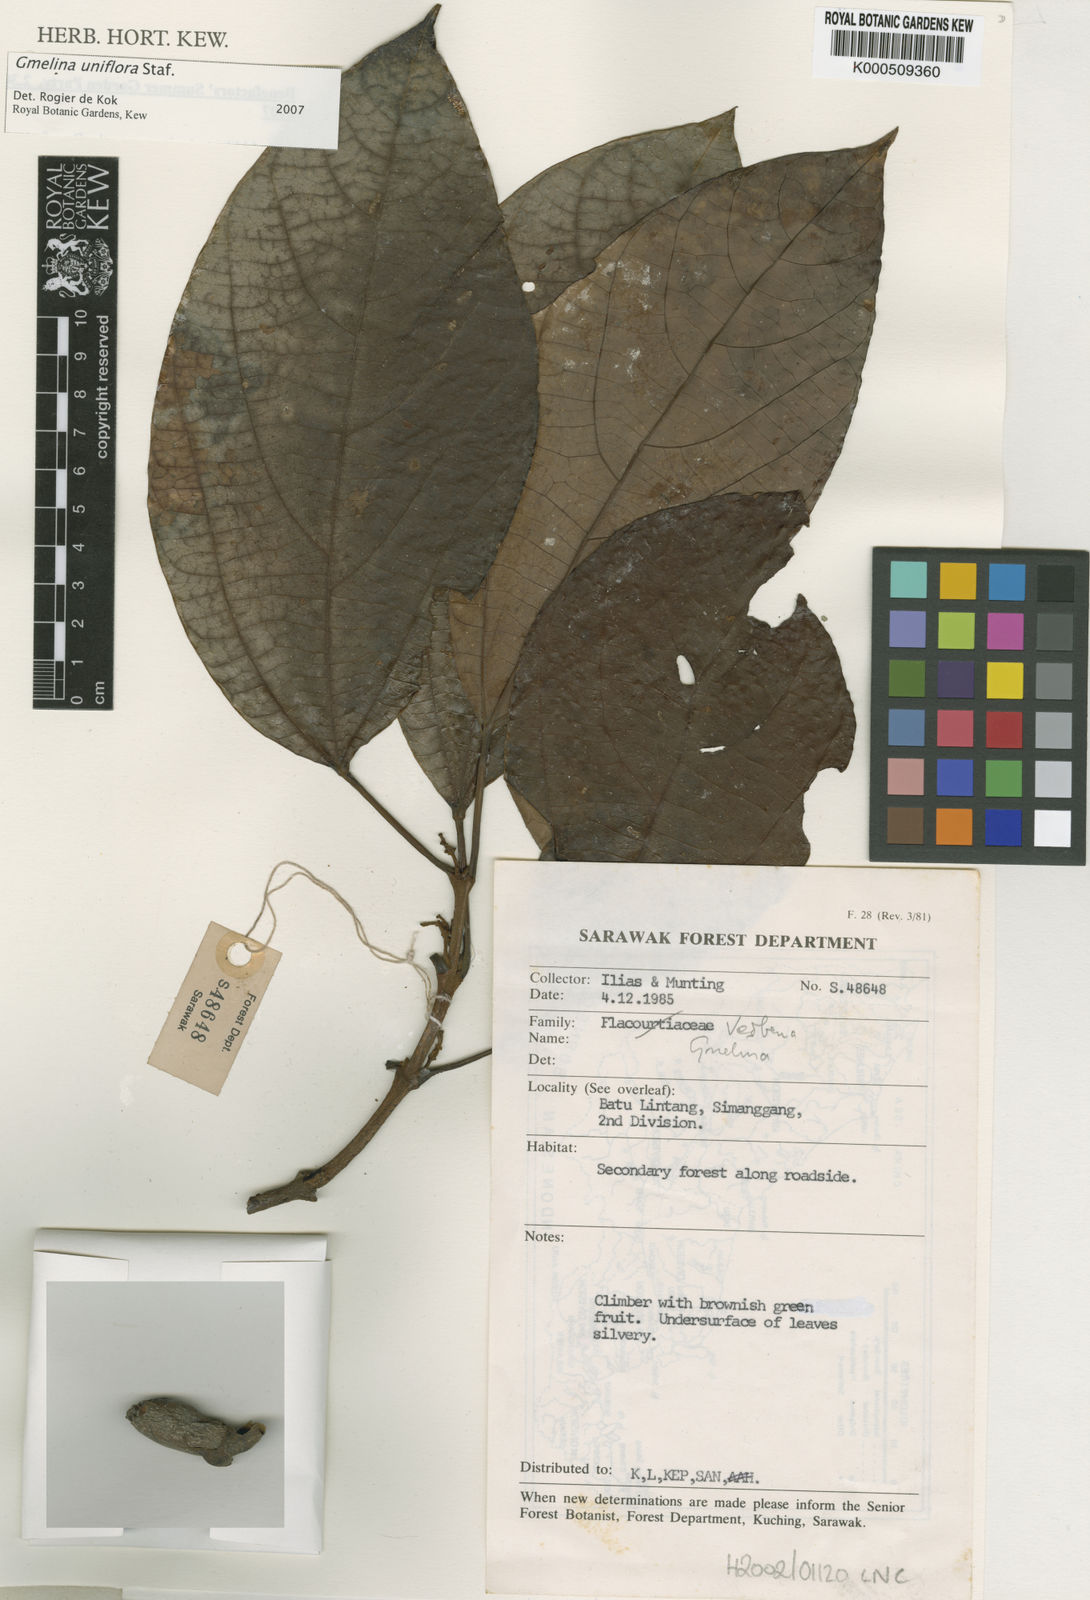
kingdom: Plantae
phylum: Tracheophyta
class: Magnoliopsida
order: Lamiales
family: Lamiaceae
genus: Gmelina
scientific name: Gmelina uniflora
